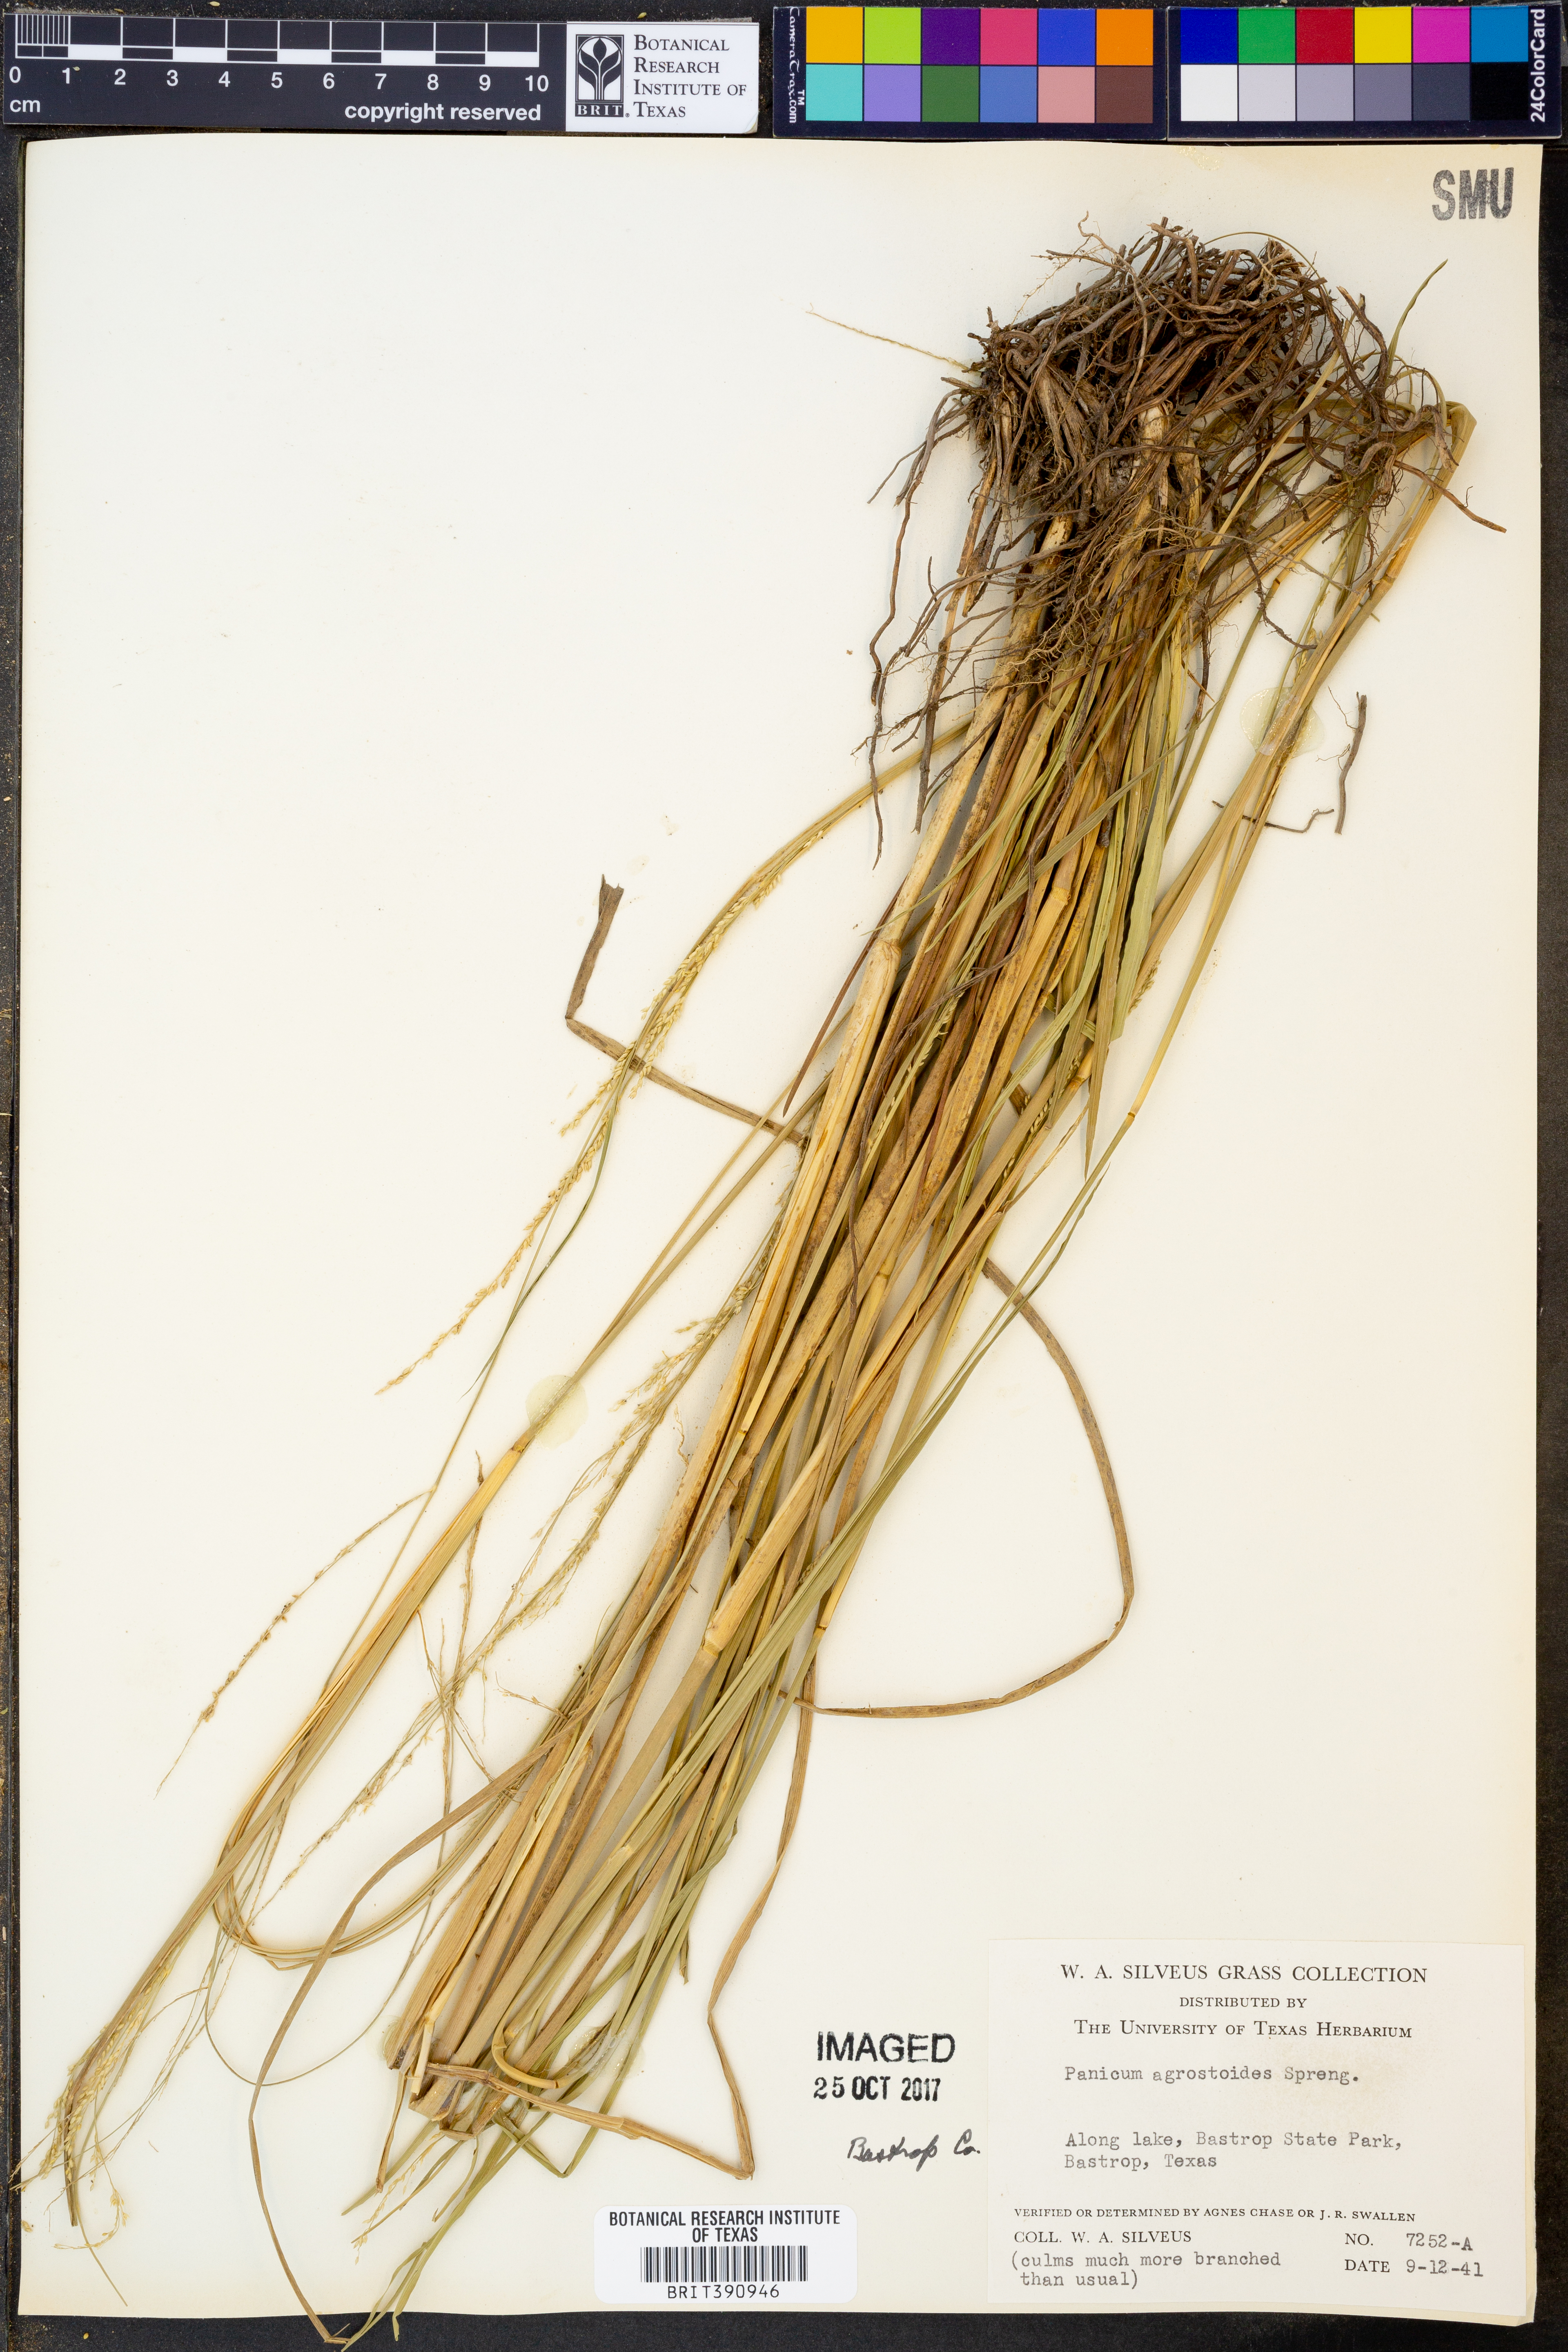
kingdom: Plantae
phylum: Tracheophyta
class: Liliopsida
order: Poales
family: Poaceae
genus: Steinchisma
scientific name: Steinchisma laxum
